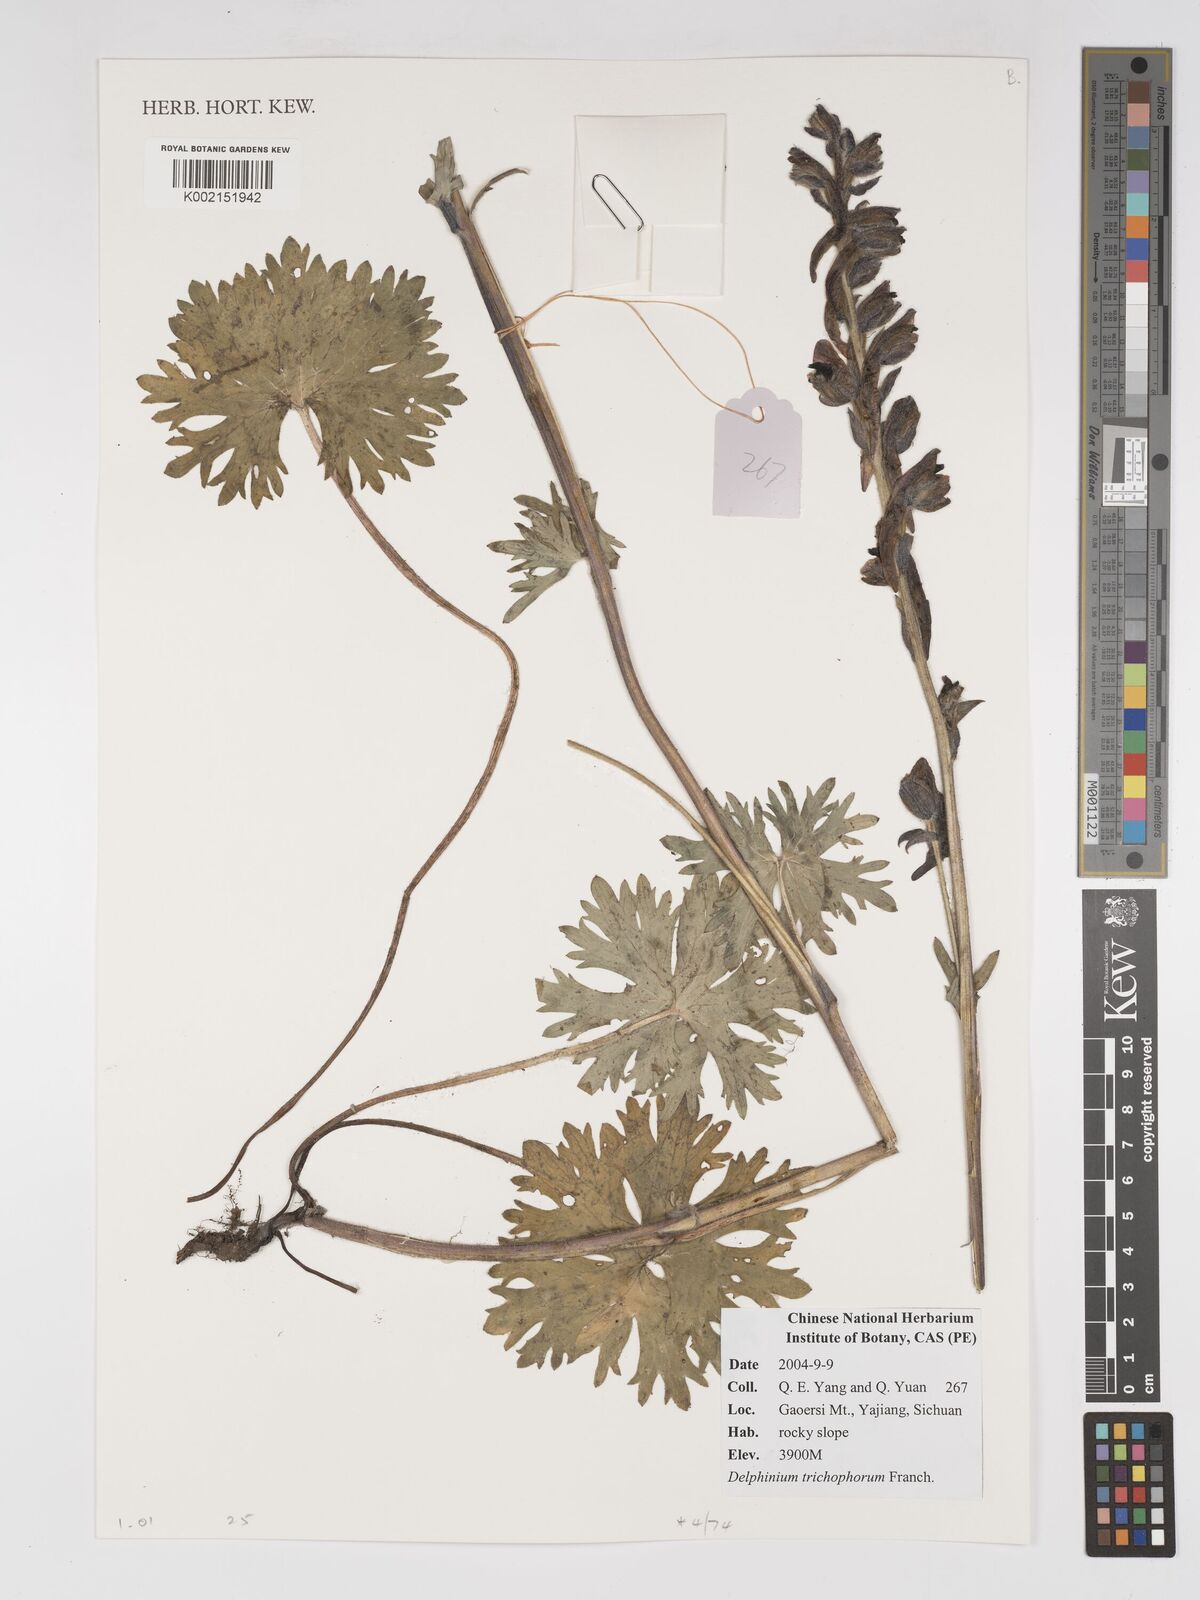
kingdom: Plantae
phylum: Tracheophyta
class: Magnoliopsida
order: Ranunculales
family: Ranunculaceae
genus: Delphinium
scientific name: Delphinium trichophorum
